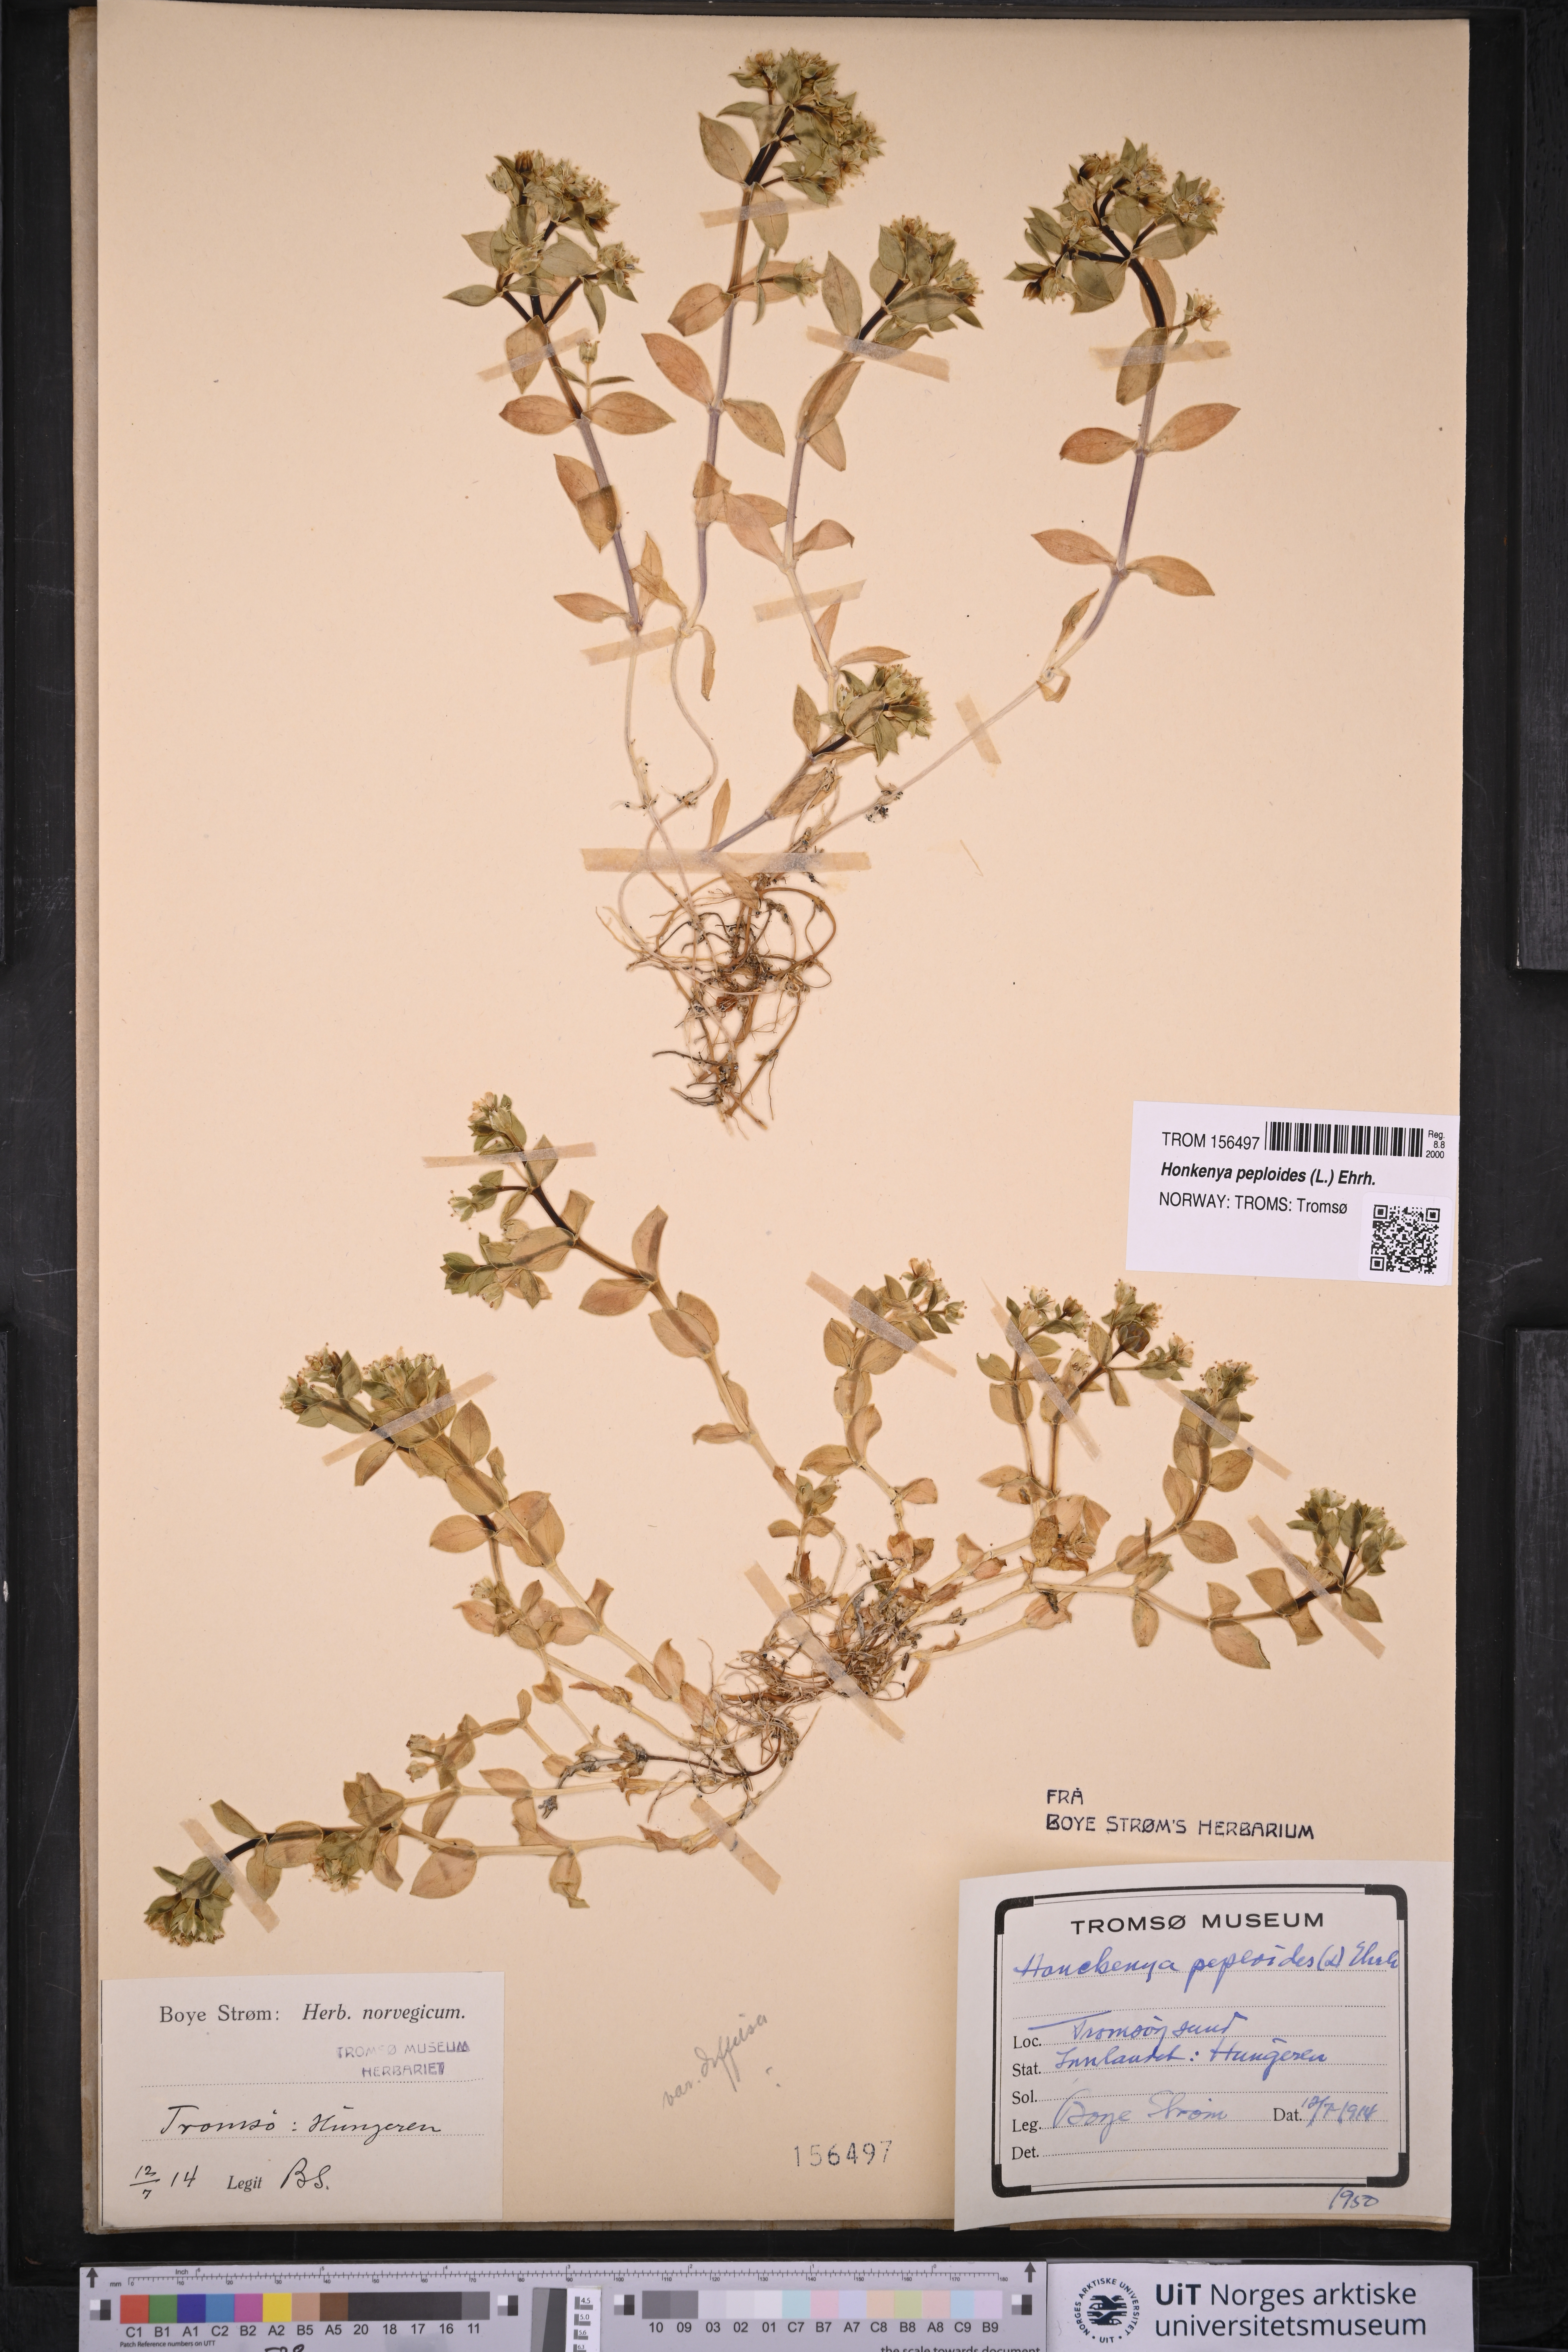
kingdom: Plantae
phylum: Tracheophyta
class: Magnoliopsida
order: Caryophyllales
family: Caryophyllaceae
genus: Honckenya
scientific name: Honckenya peploides
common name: Sea sandwort
